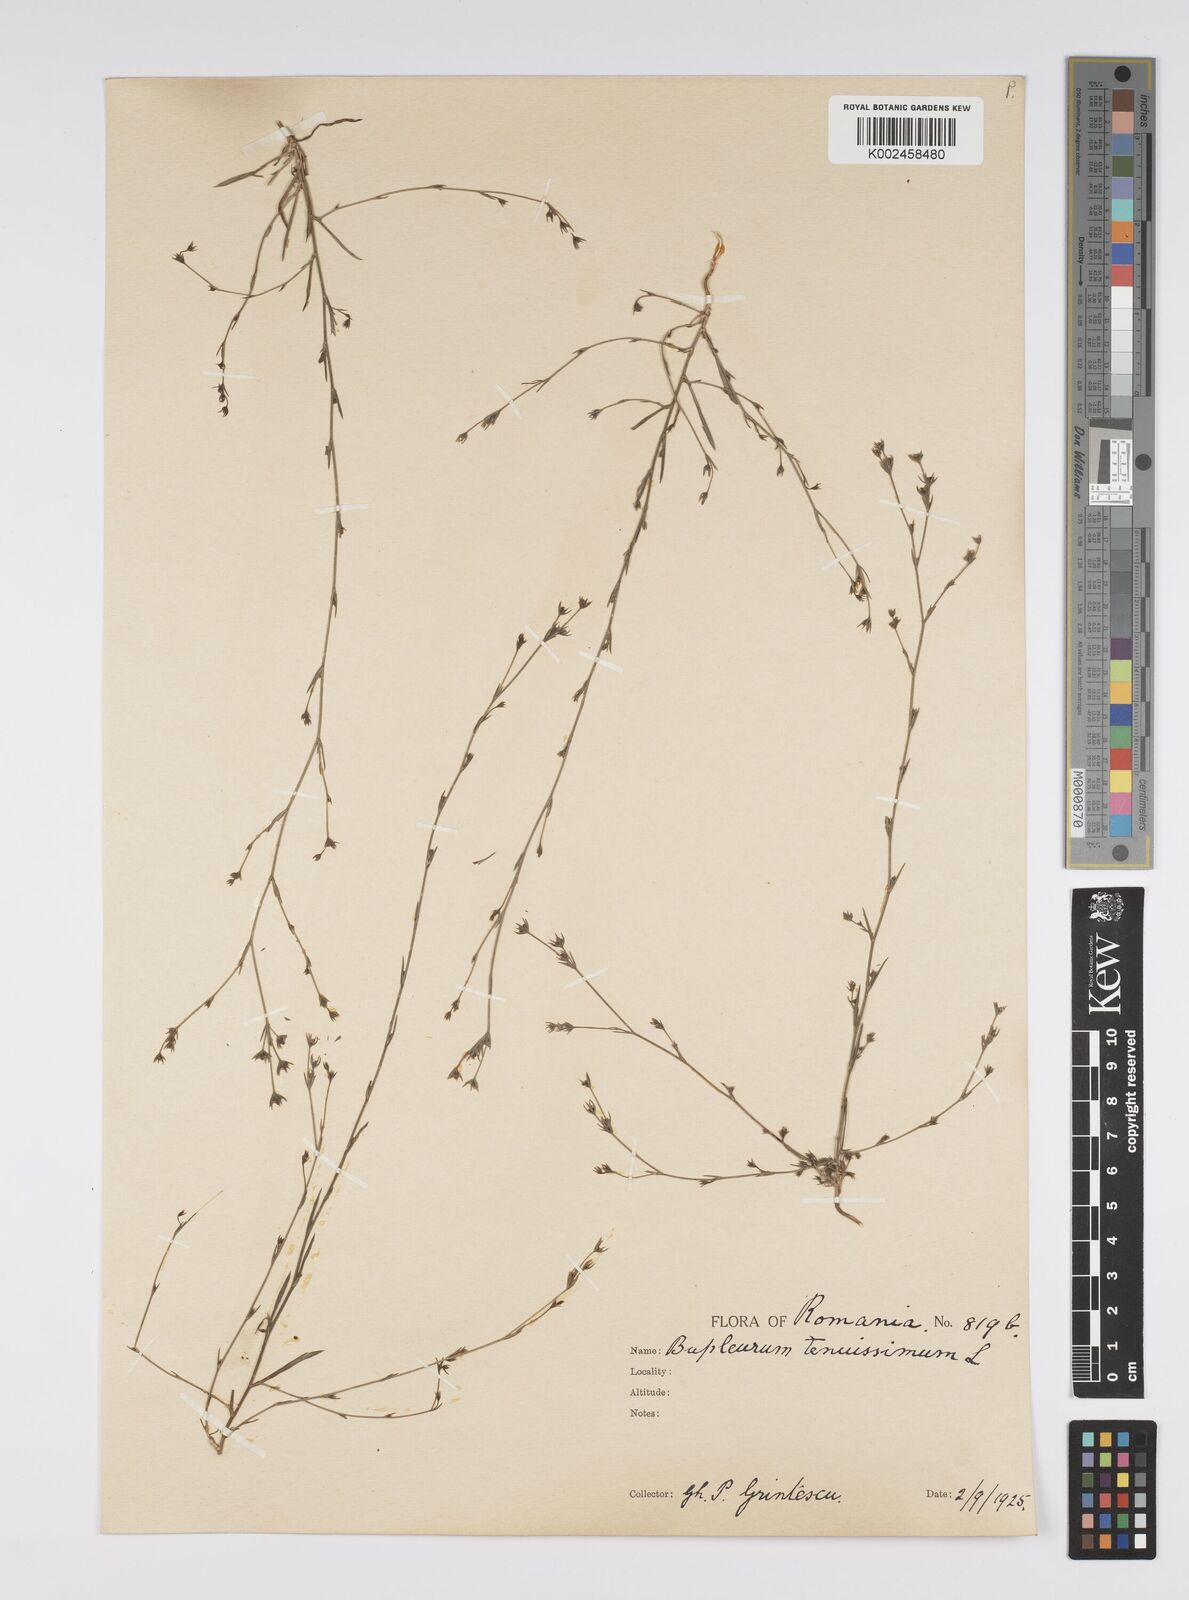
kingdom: Plantae
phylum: Tracheophyta
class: Magnoliopsida
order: Apiales
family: Apiaceae
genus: Bupleurum
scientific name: Bupleurum tenuissimum
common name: Slender hare's-ear
